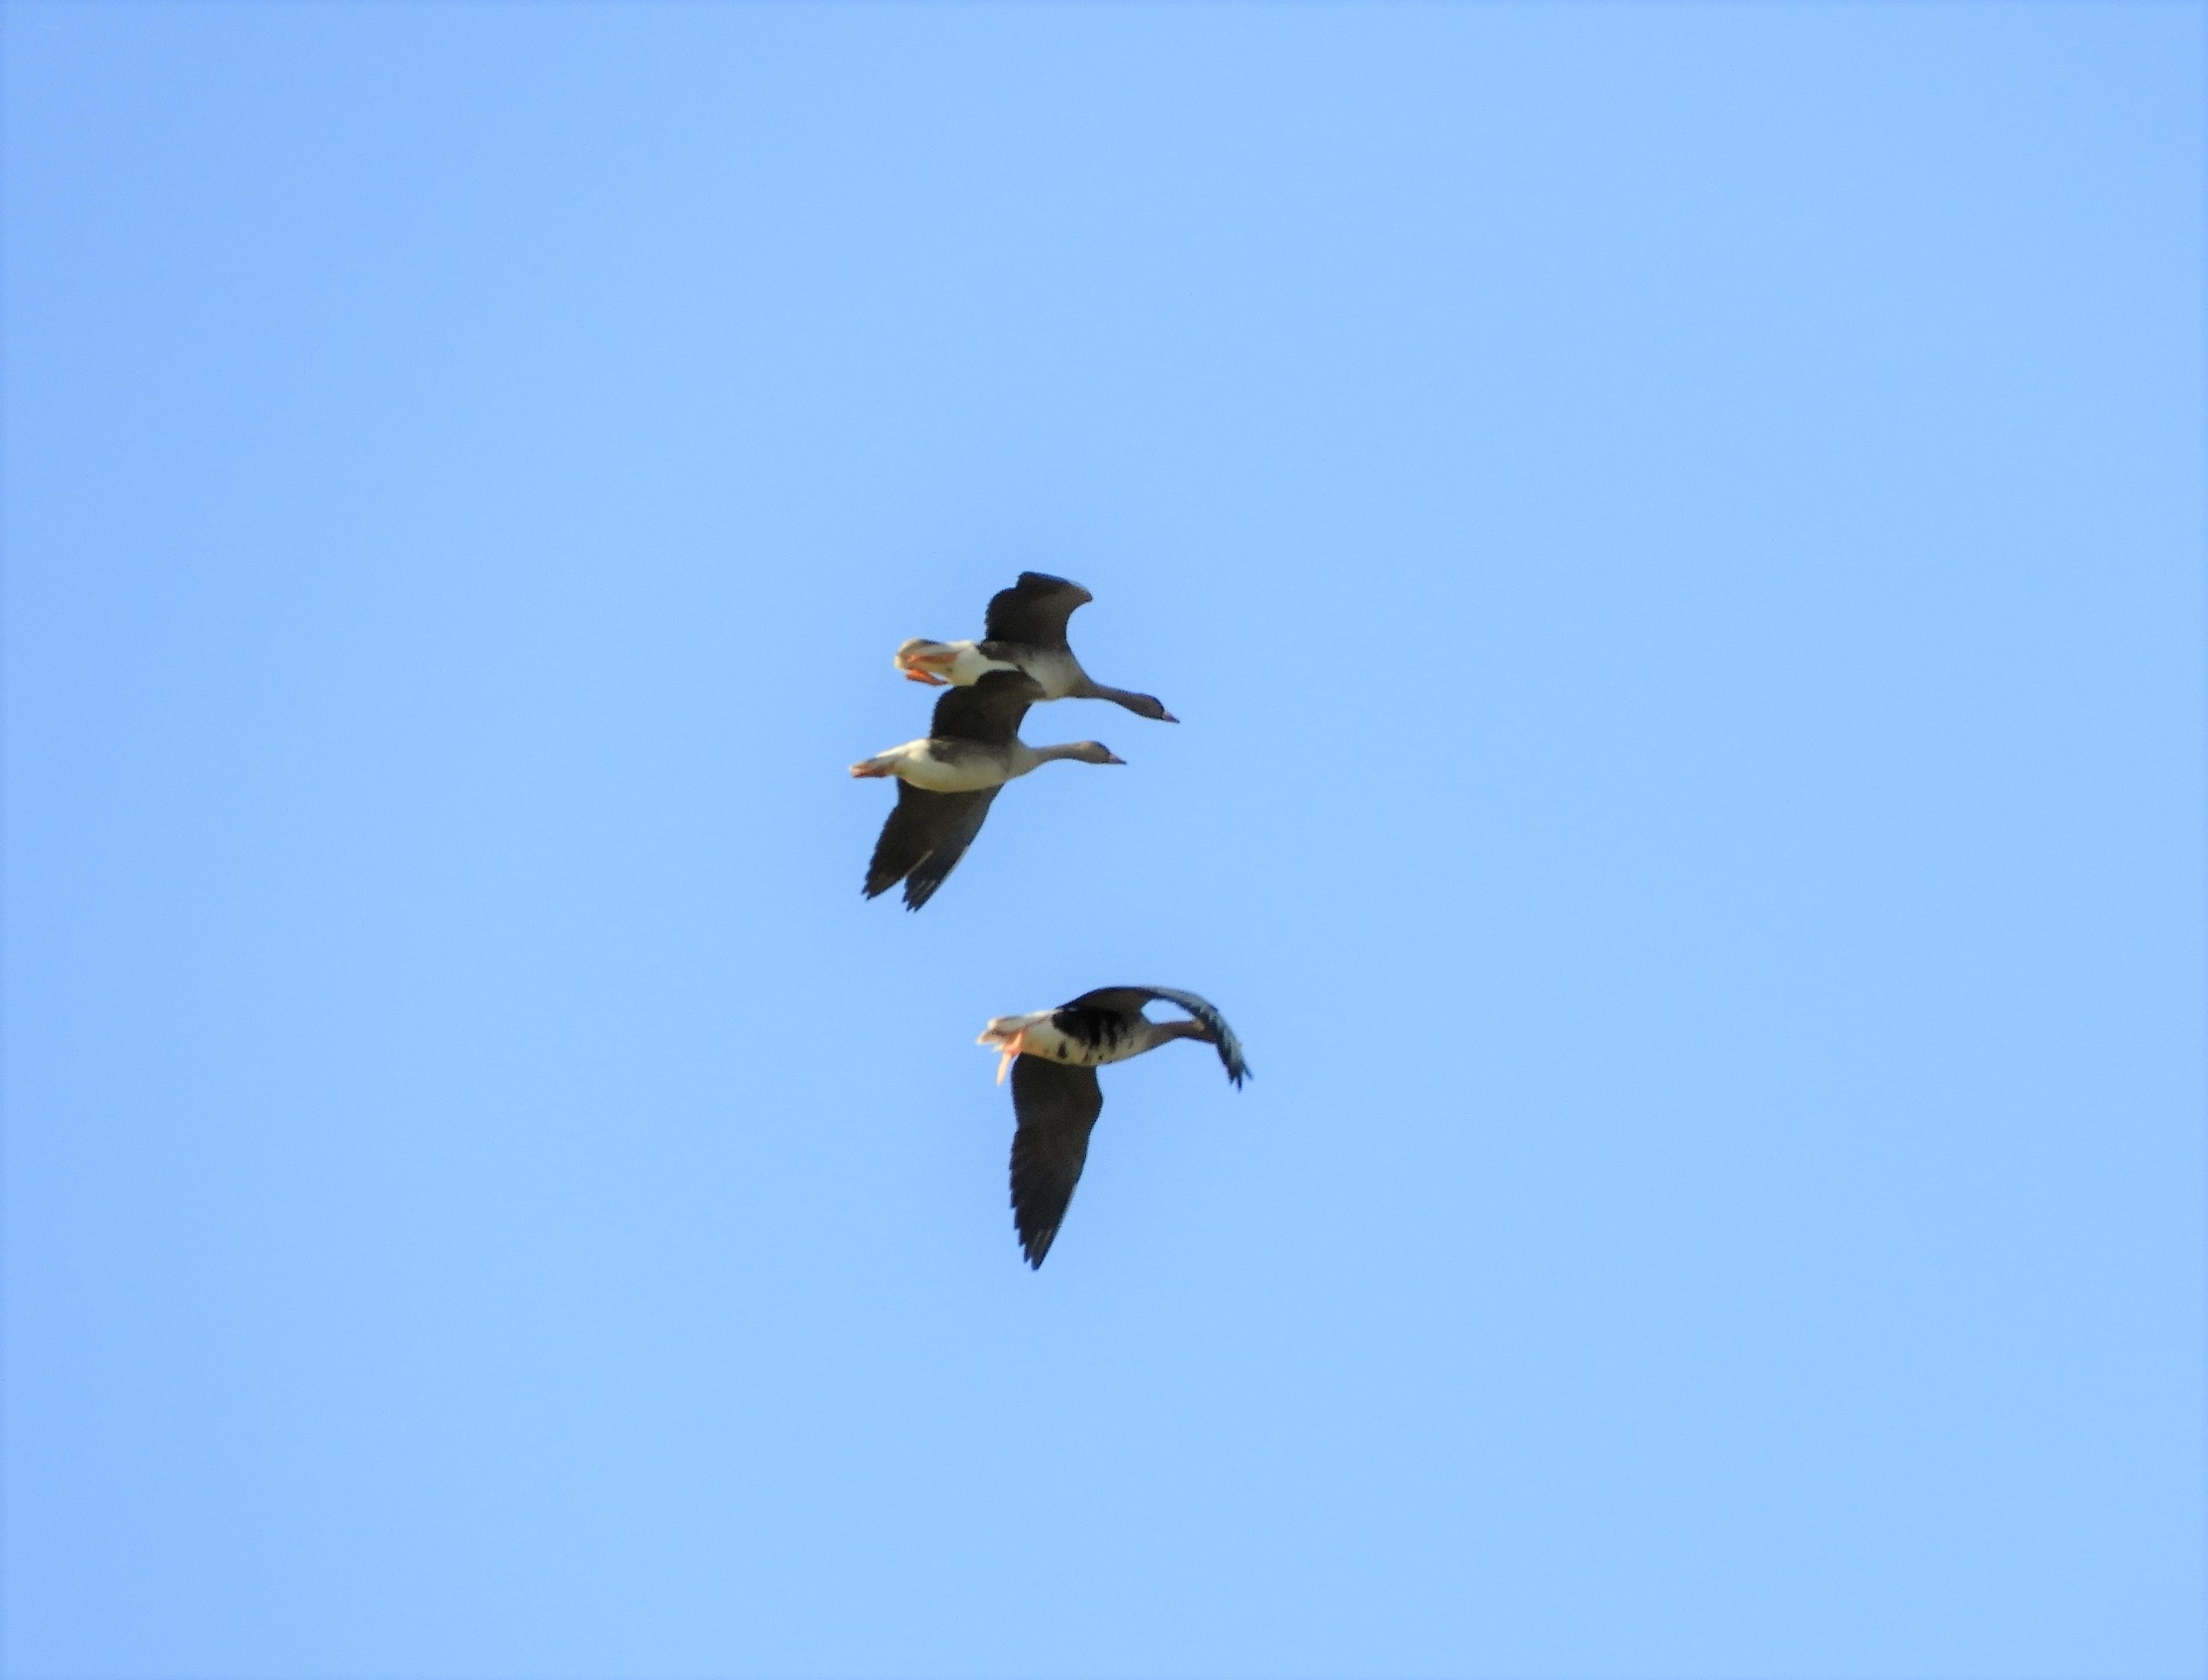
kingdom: Animalia
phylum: Chordata
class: Aves
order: Anseriformes
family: Anatidae
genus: Anser
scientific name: Anser albifrons
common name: Blisgås
